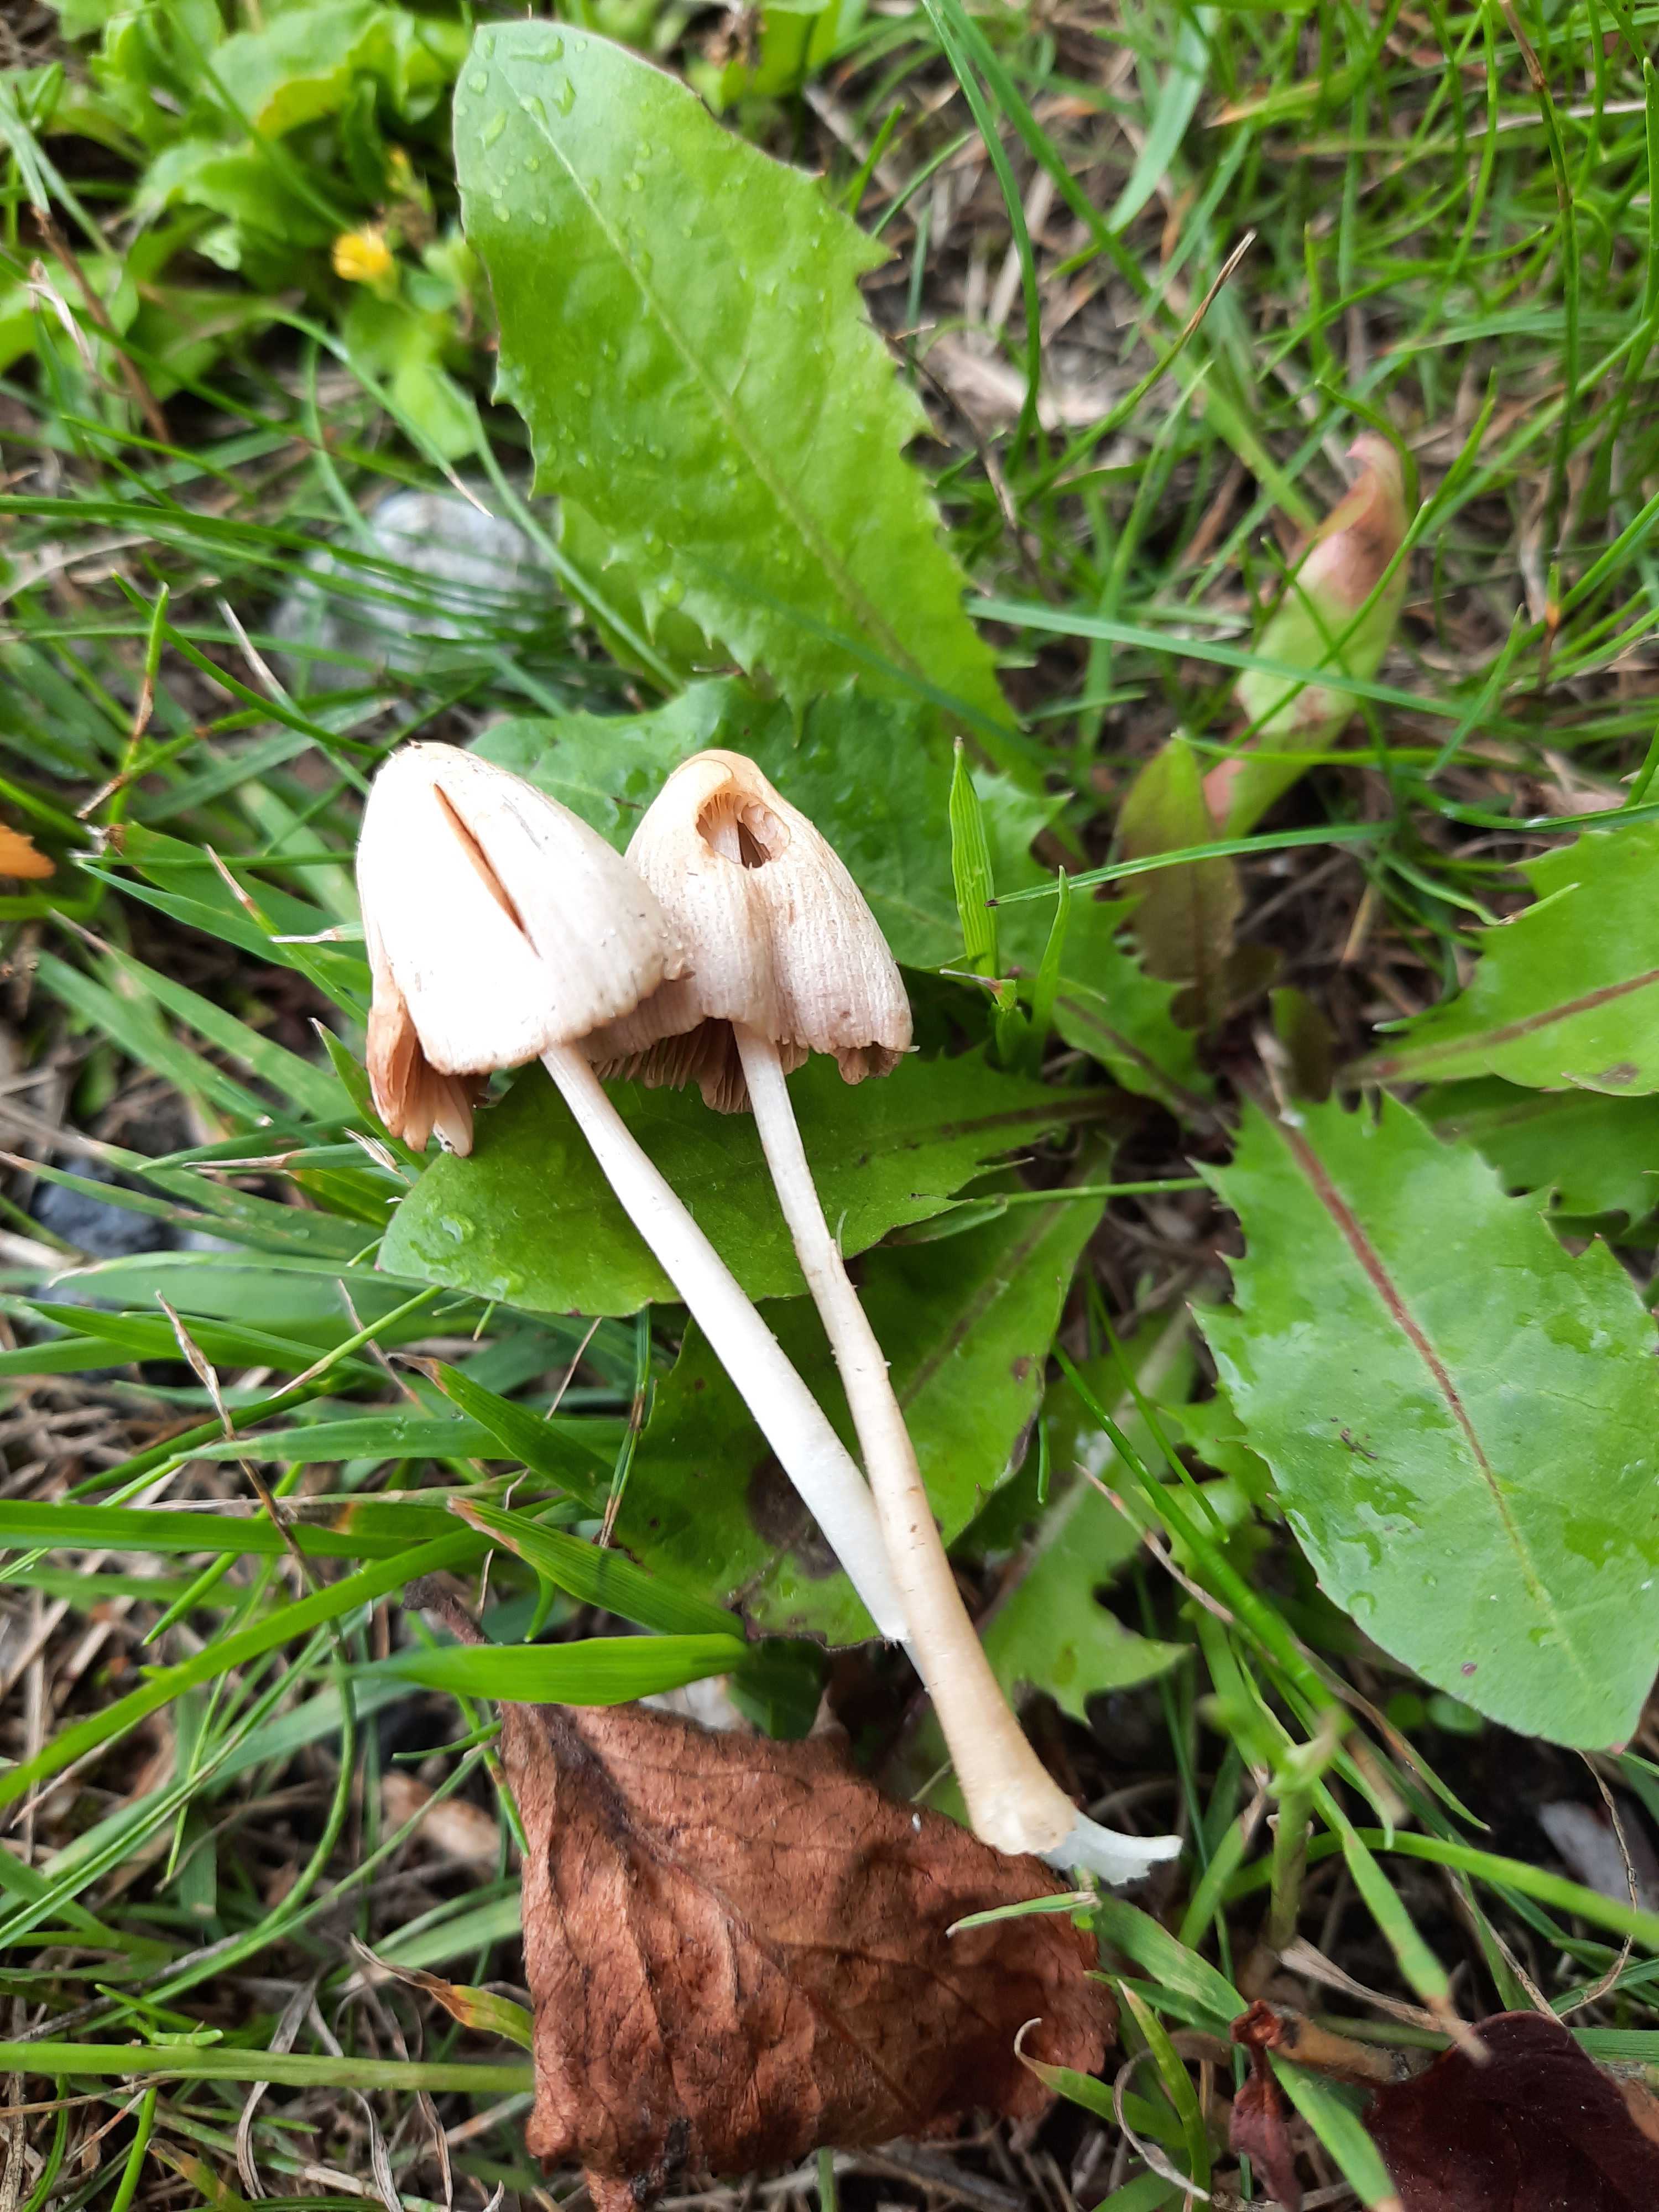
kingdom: Fungi
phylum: Basidiomycota
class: Agaricomycetes
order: Agaricales
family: Bolbitiaceae
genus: Conocybe
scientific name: Conocybe apala
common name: mælkehvid keglehat
